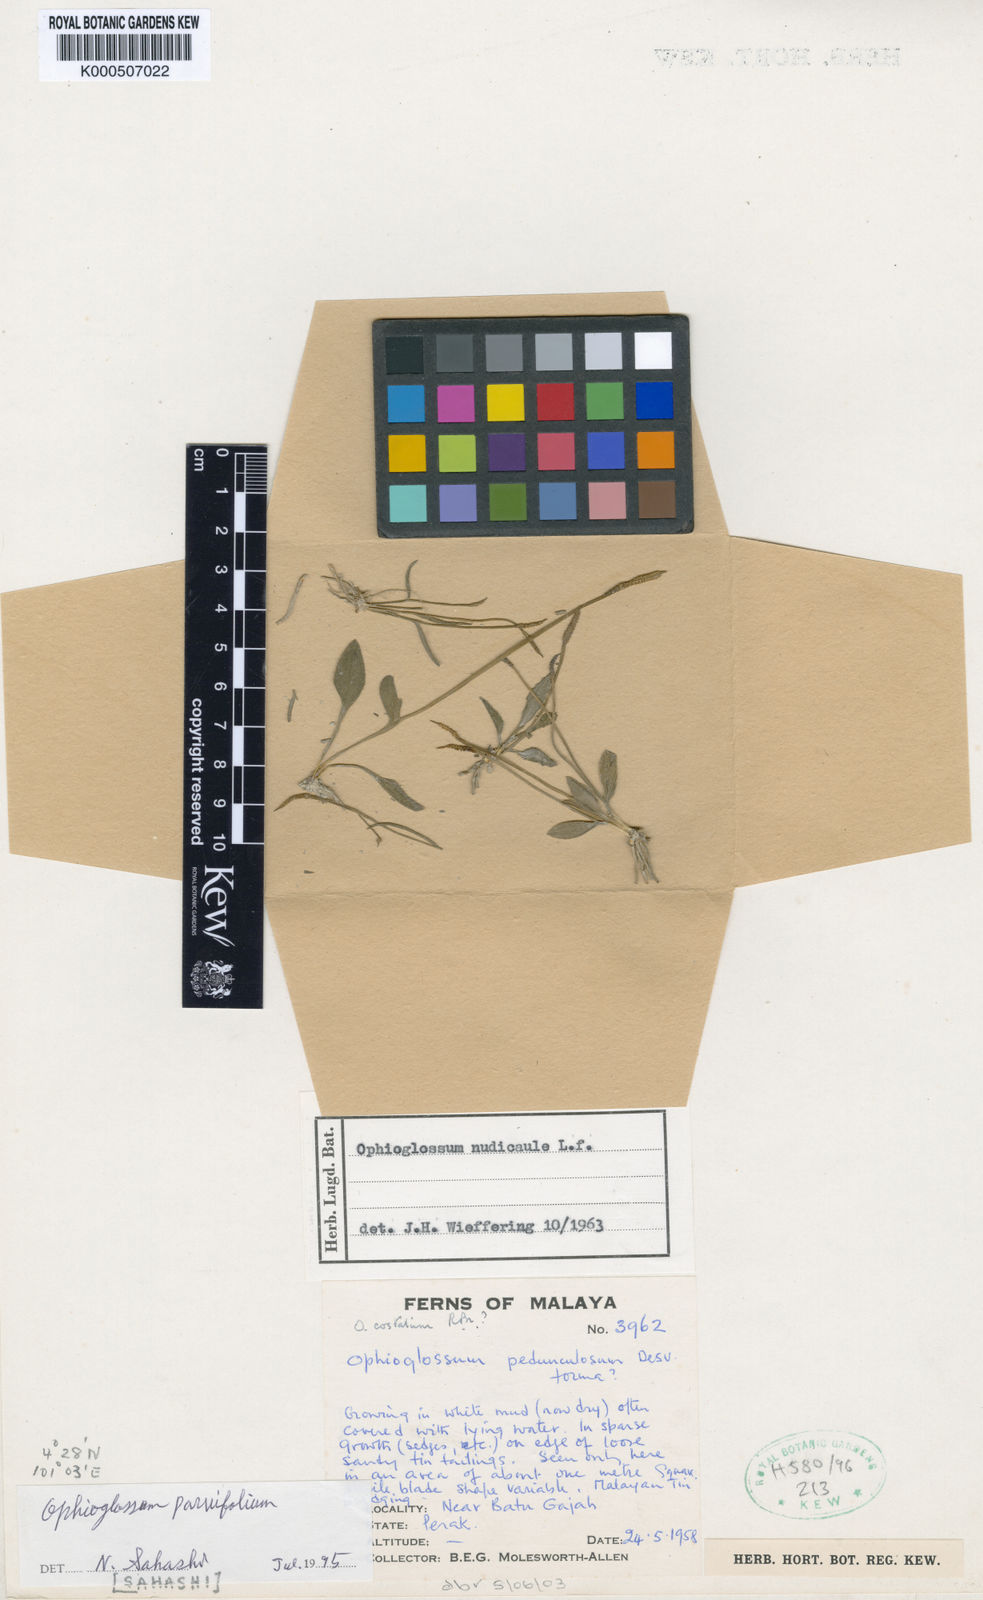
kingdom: Plantae
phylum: Tracheophyta
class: Polypodiopsida
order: Ophioglossales
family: Ophioglossaceae
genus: Ophioglossum
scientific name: Ophioglossum parvifolium
